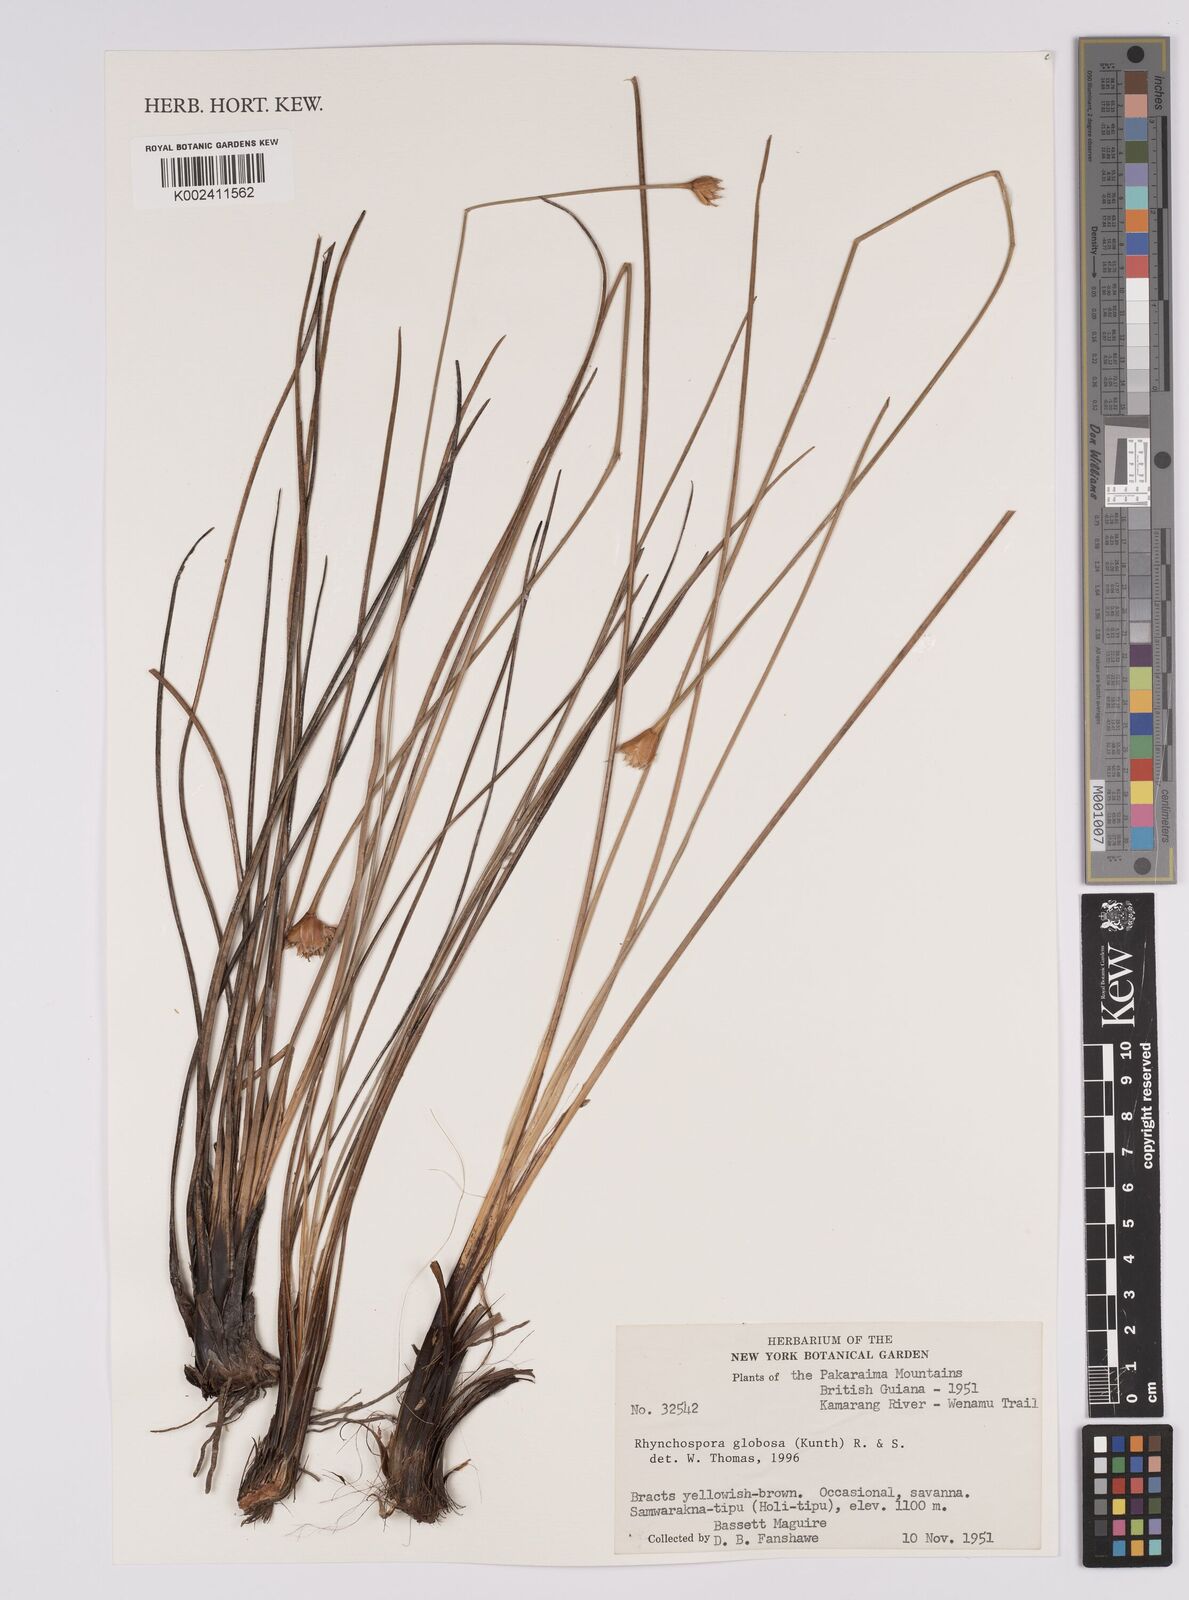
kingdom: Plantae
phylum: Tracheophyta
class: Liliopsida
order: Poales
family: Cyperaceae
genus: Rhynchospora
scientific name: Rhynchospora exaltata
